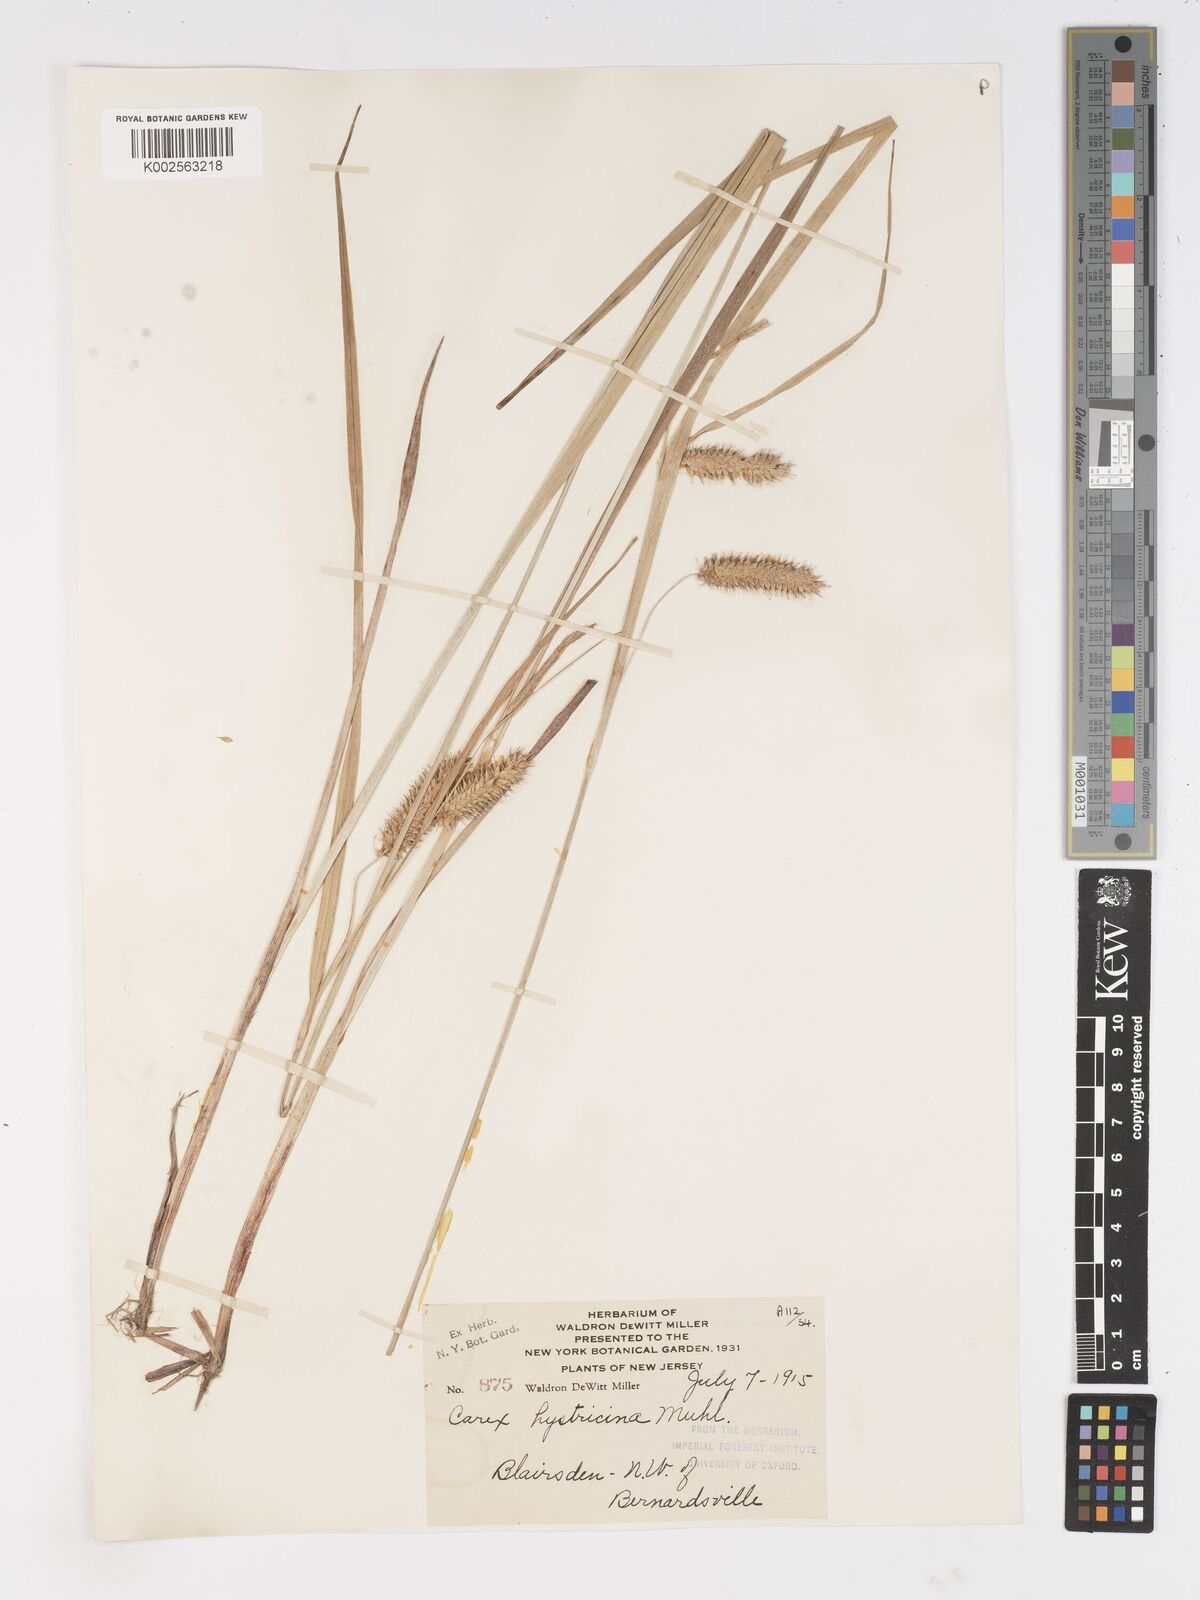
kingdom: Plantae
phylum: Tracheophyta
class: Liliopsida
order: Poales
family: Cyperaceae
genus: Carex
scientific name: Carex hystericina
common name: Bottlebrush sedge
